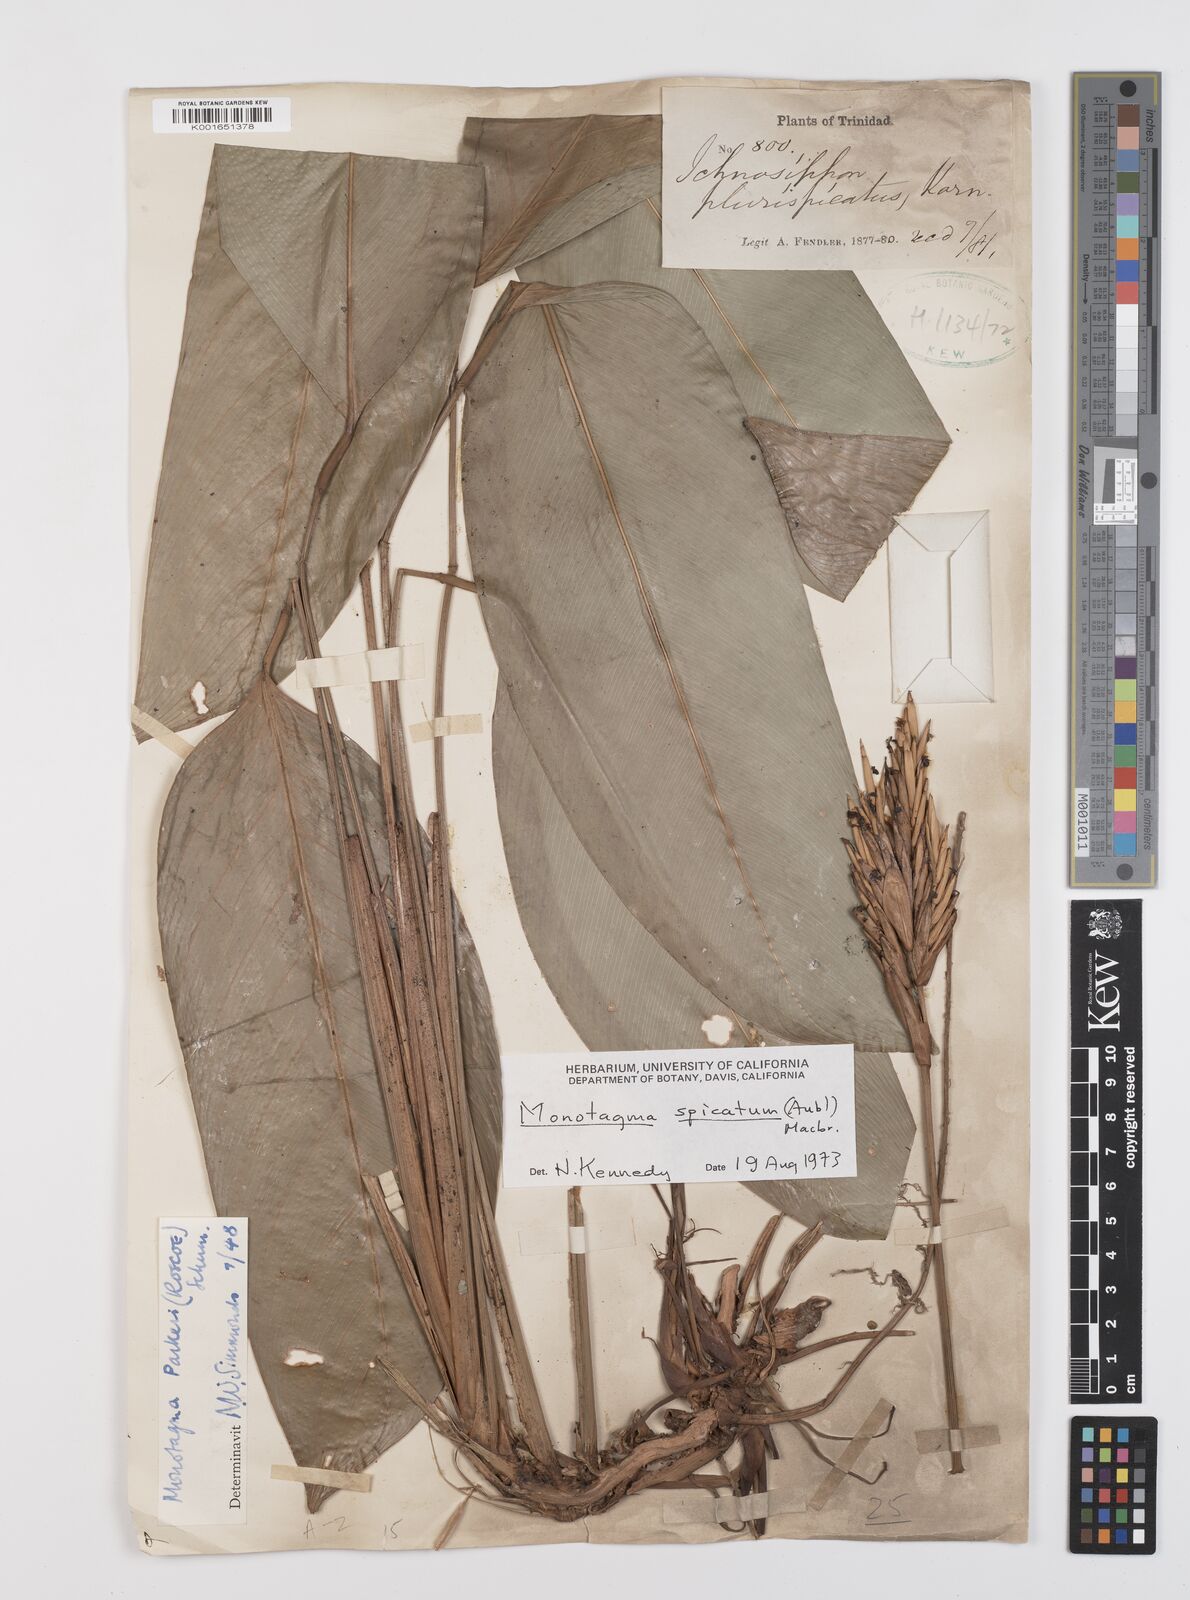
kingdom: Plantae
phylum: Tracheophyta
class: Liliopsida
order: Zingiberales
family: Marantaceae
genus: Monotagma
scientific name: Monotagma spicatum
